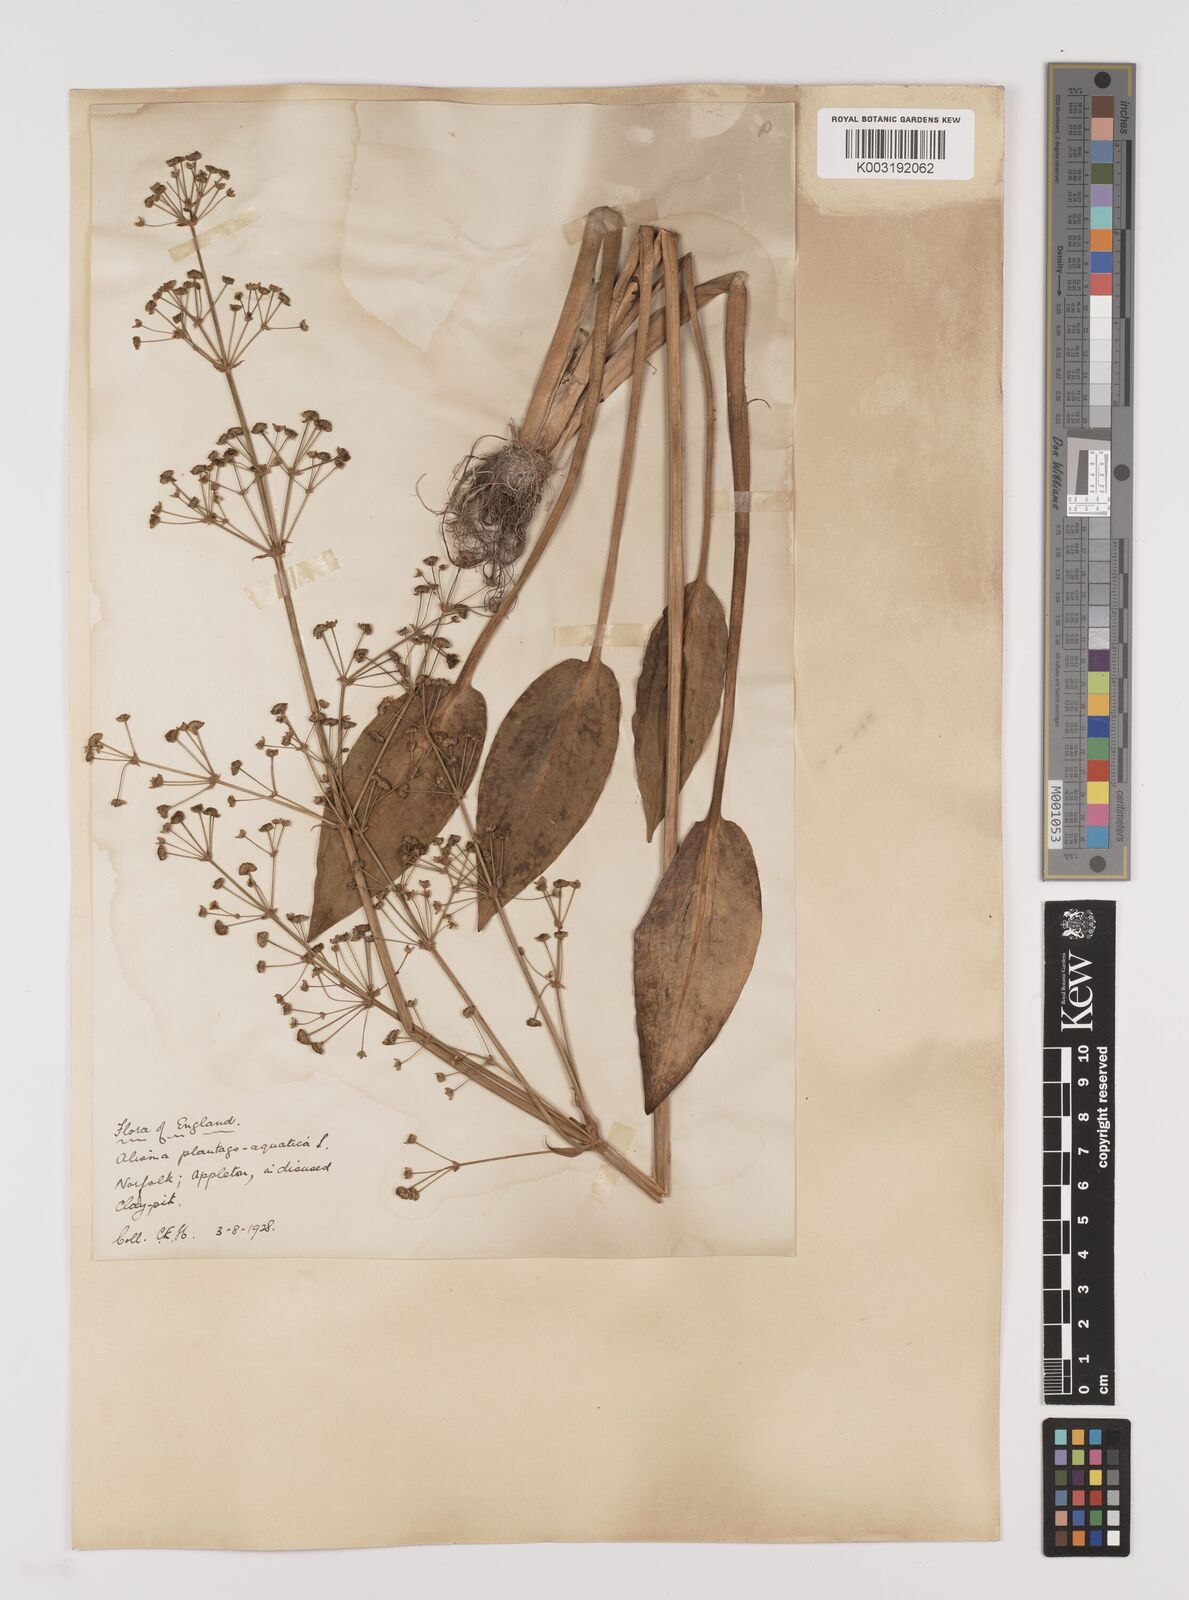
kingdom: Plantae
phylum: Tracheophyta
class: Liliopsida
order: Alismatales
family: Alismataceae
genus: Alisma
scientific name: Alisma plantago-aquatica
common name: Water-plantain
